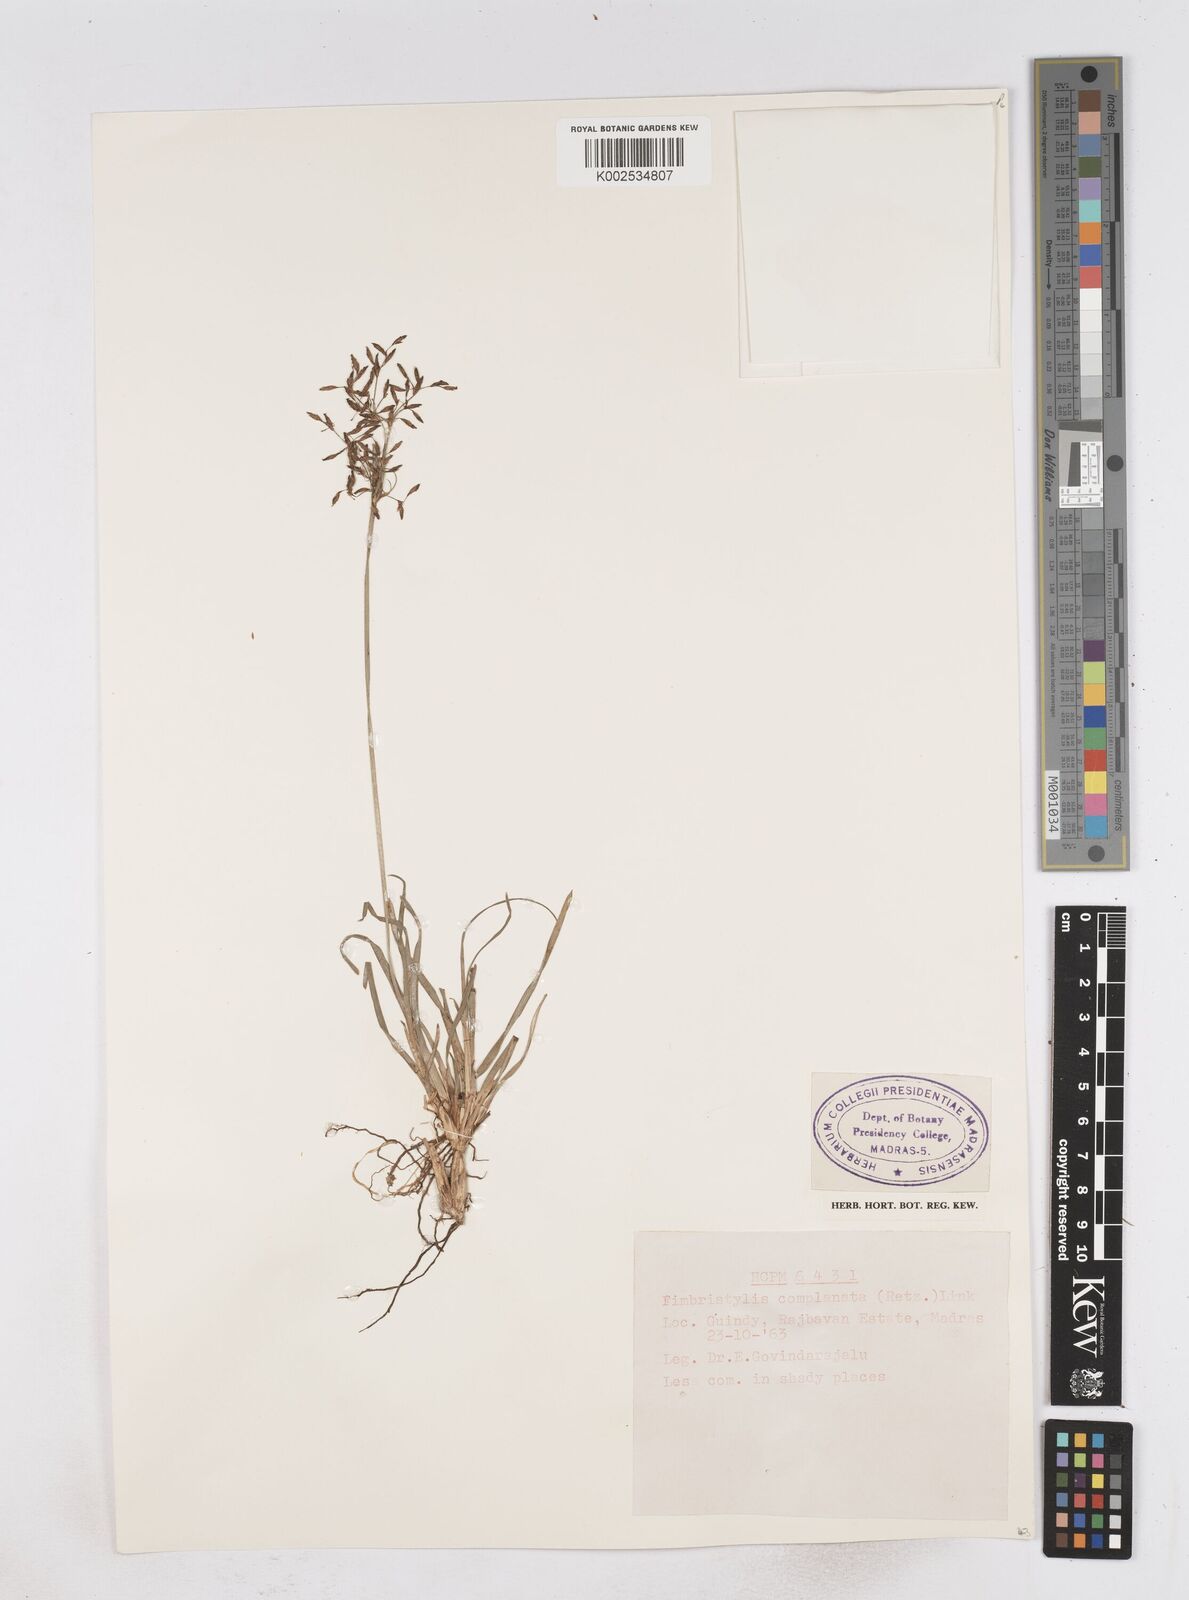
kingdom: Plantae
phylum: Tracheophyta
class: Liliopsida
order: Poales
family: Cyperaceae
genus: Fimbristylis
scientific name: Fimbristylis complanata
